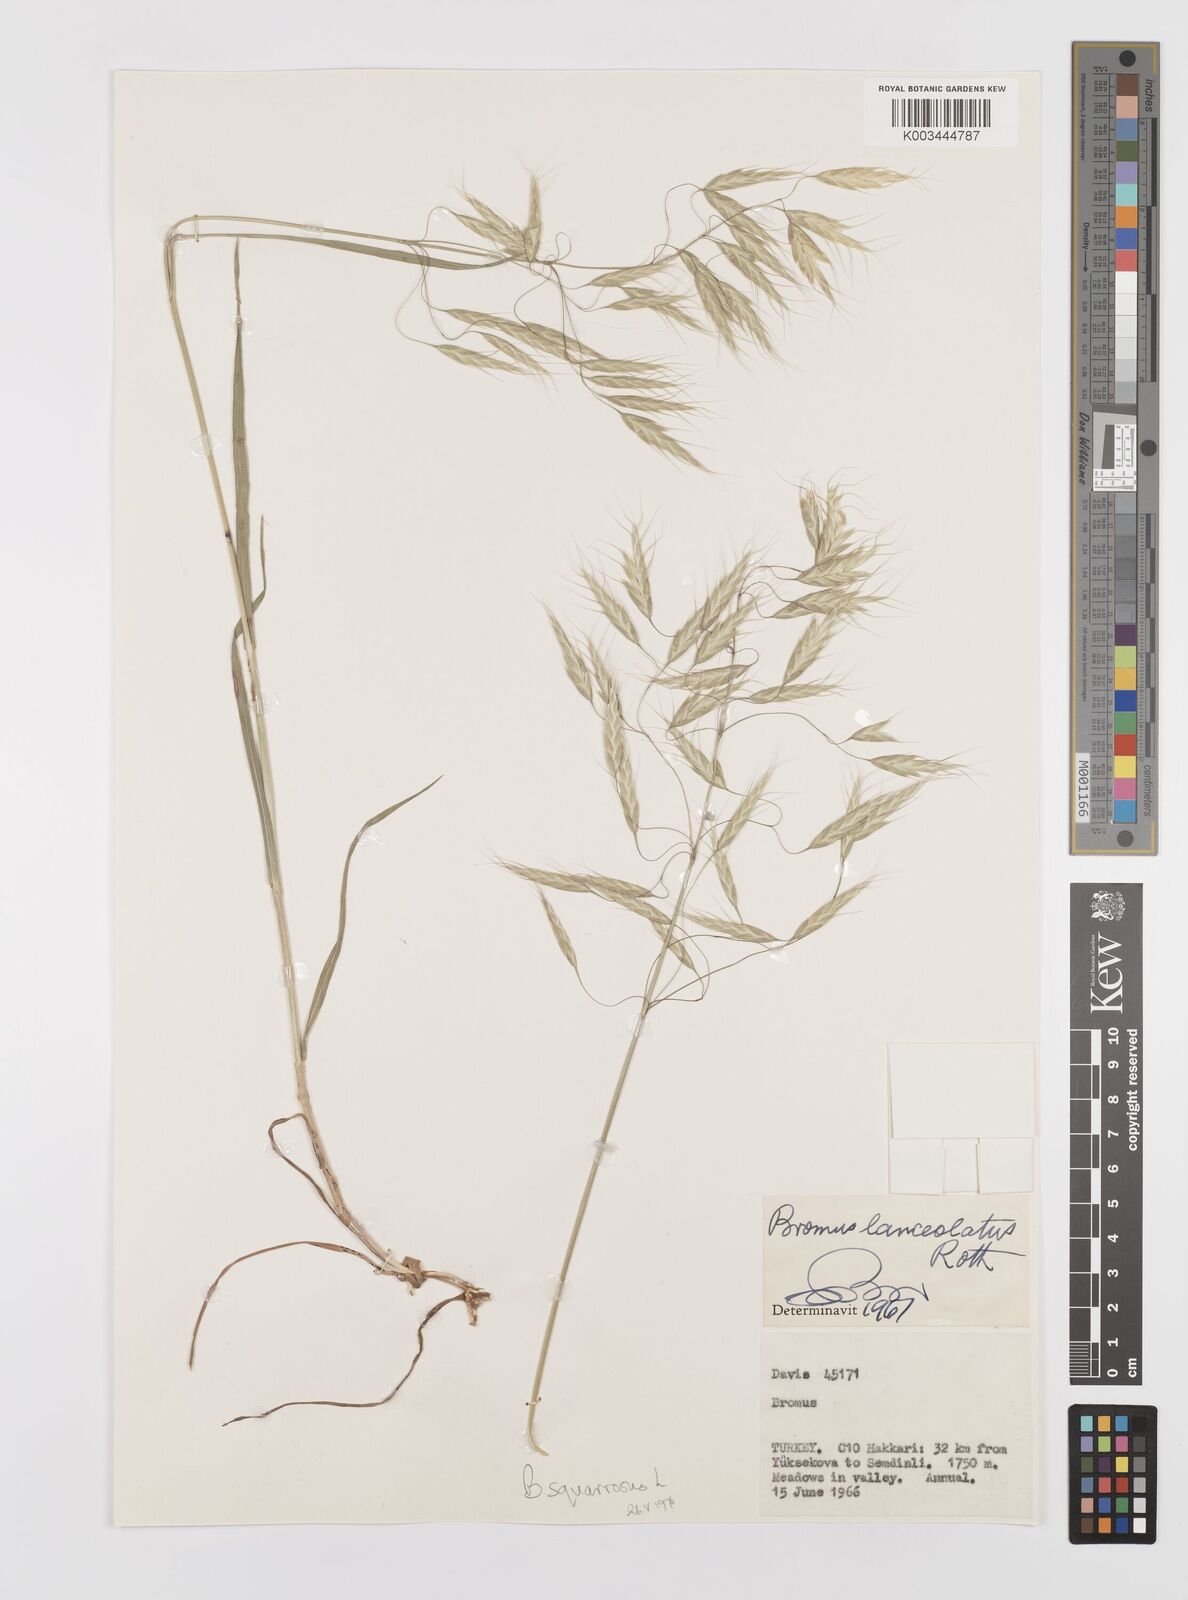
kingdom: Plantae
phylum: Tracheophyta
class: Liliopsida
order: Poales
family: Poaceae
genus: Bromus
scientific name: Bromus squarrosus
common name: Corn brome
